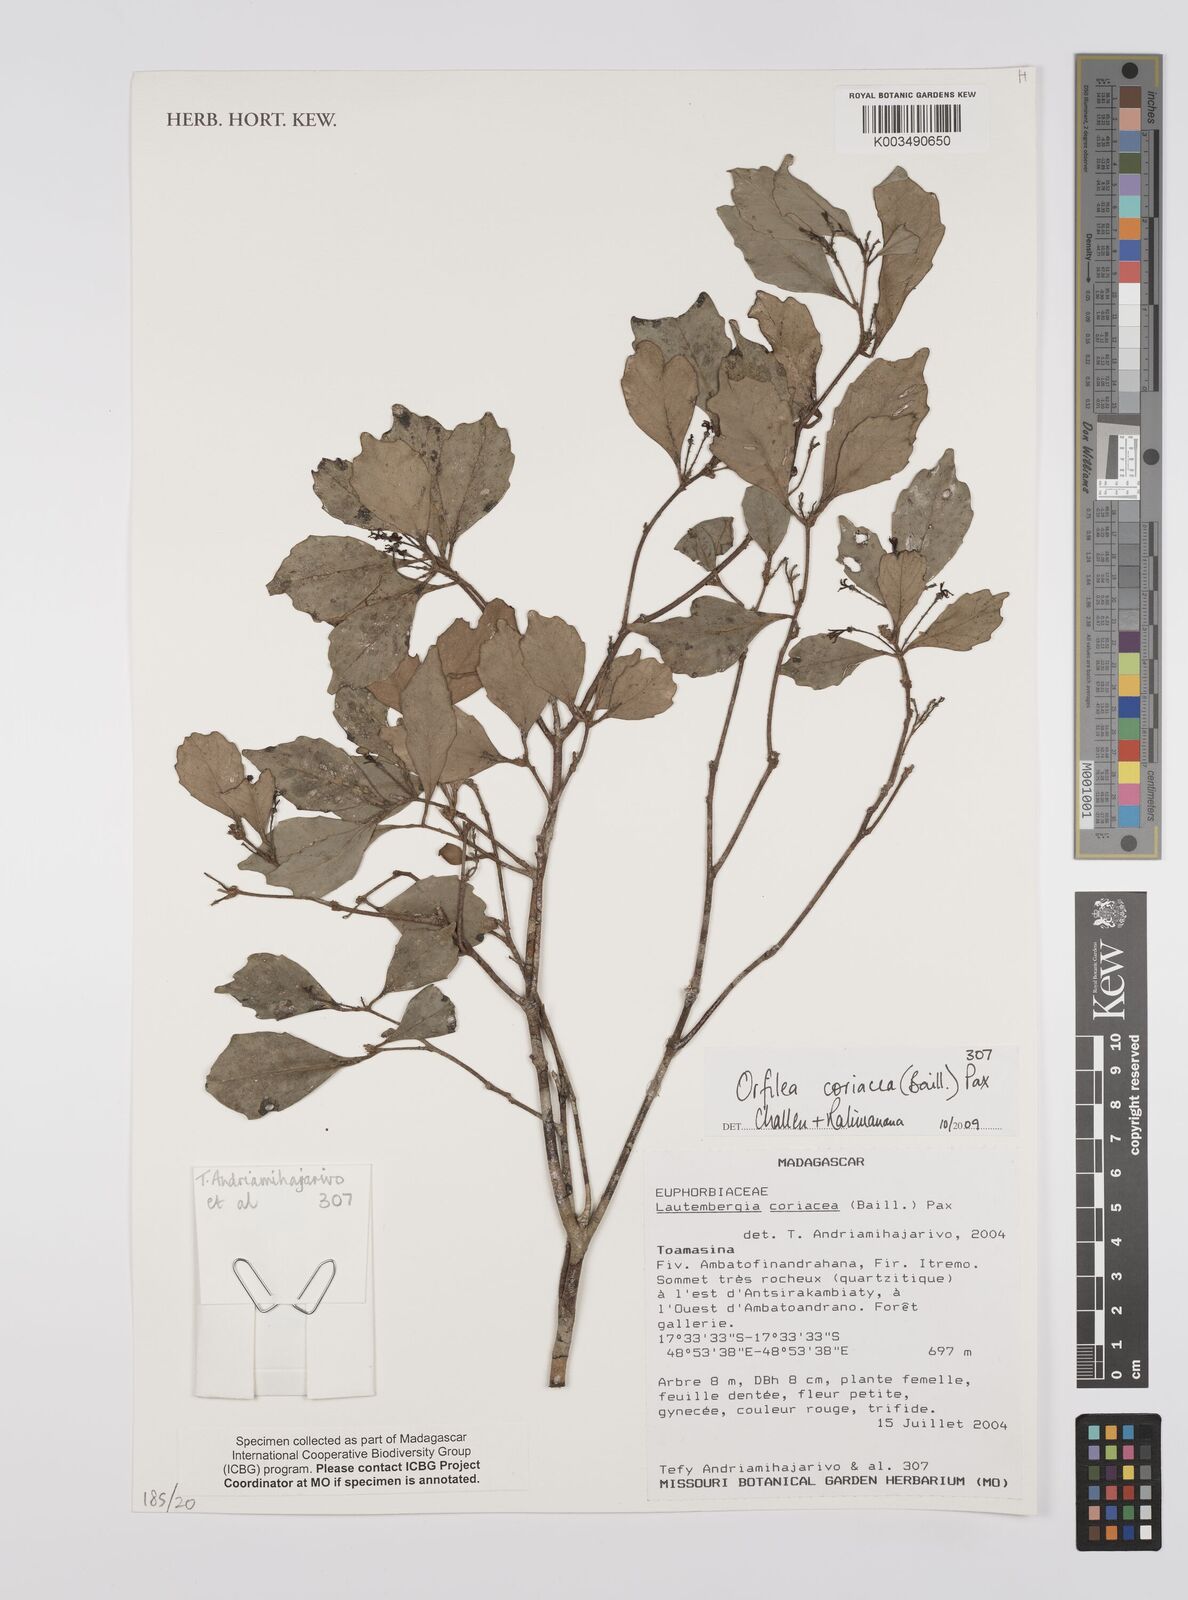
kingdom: Plantae
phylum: Tracheophyta
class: Magnoliopsida
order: Malpighiales
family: Euphorbiaceae
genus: Orfilea
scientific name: Orfilea coriacea
